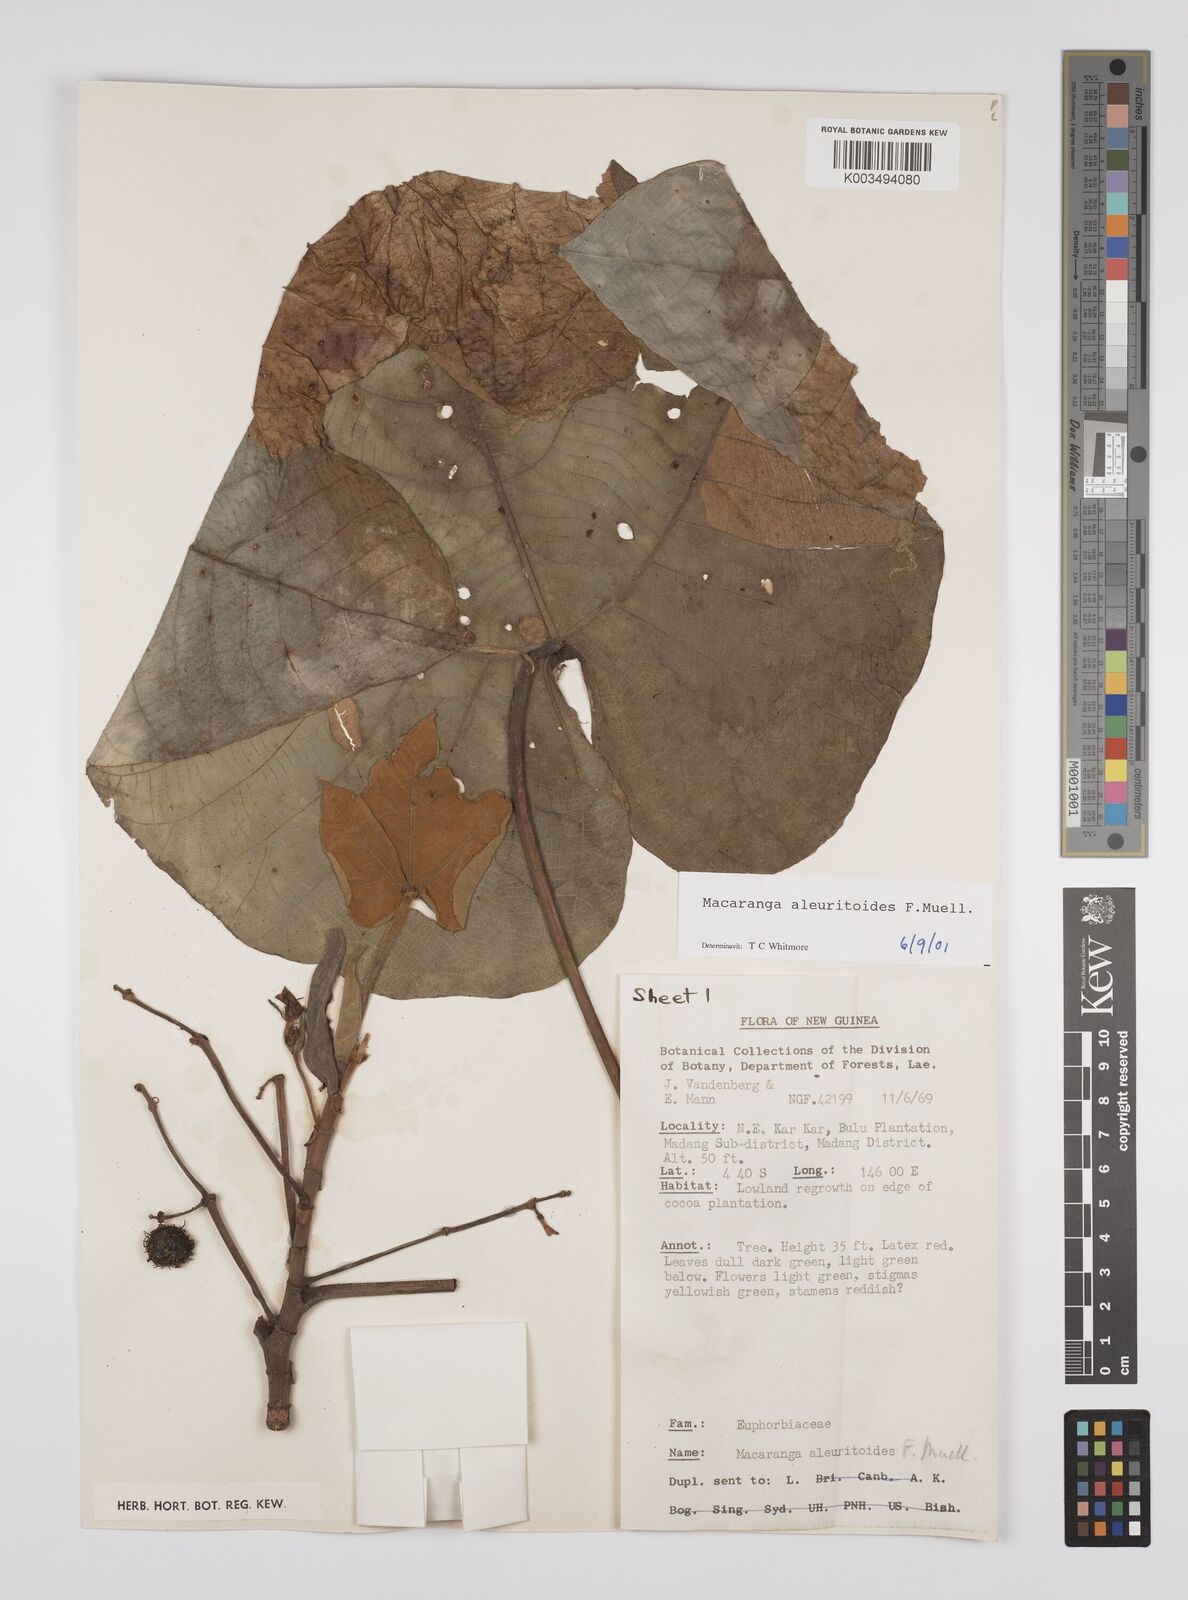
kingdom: Plantae
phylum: Tracheophyta
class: Magnoliopsida
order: Malpighiales
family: Euphorbiaceae
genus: Macaranga
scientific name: Macaranga aleuritoides
